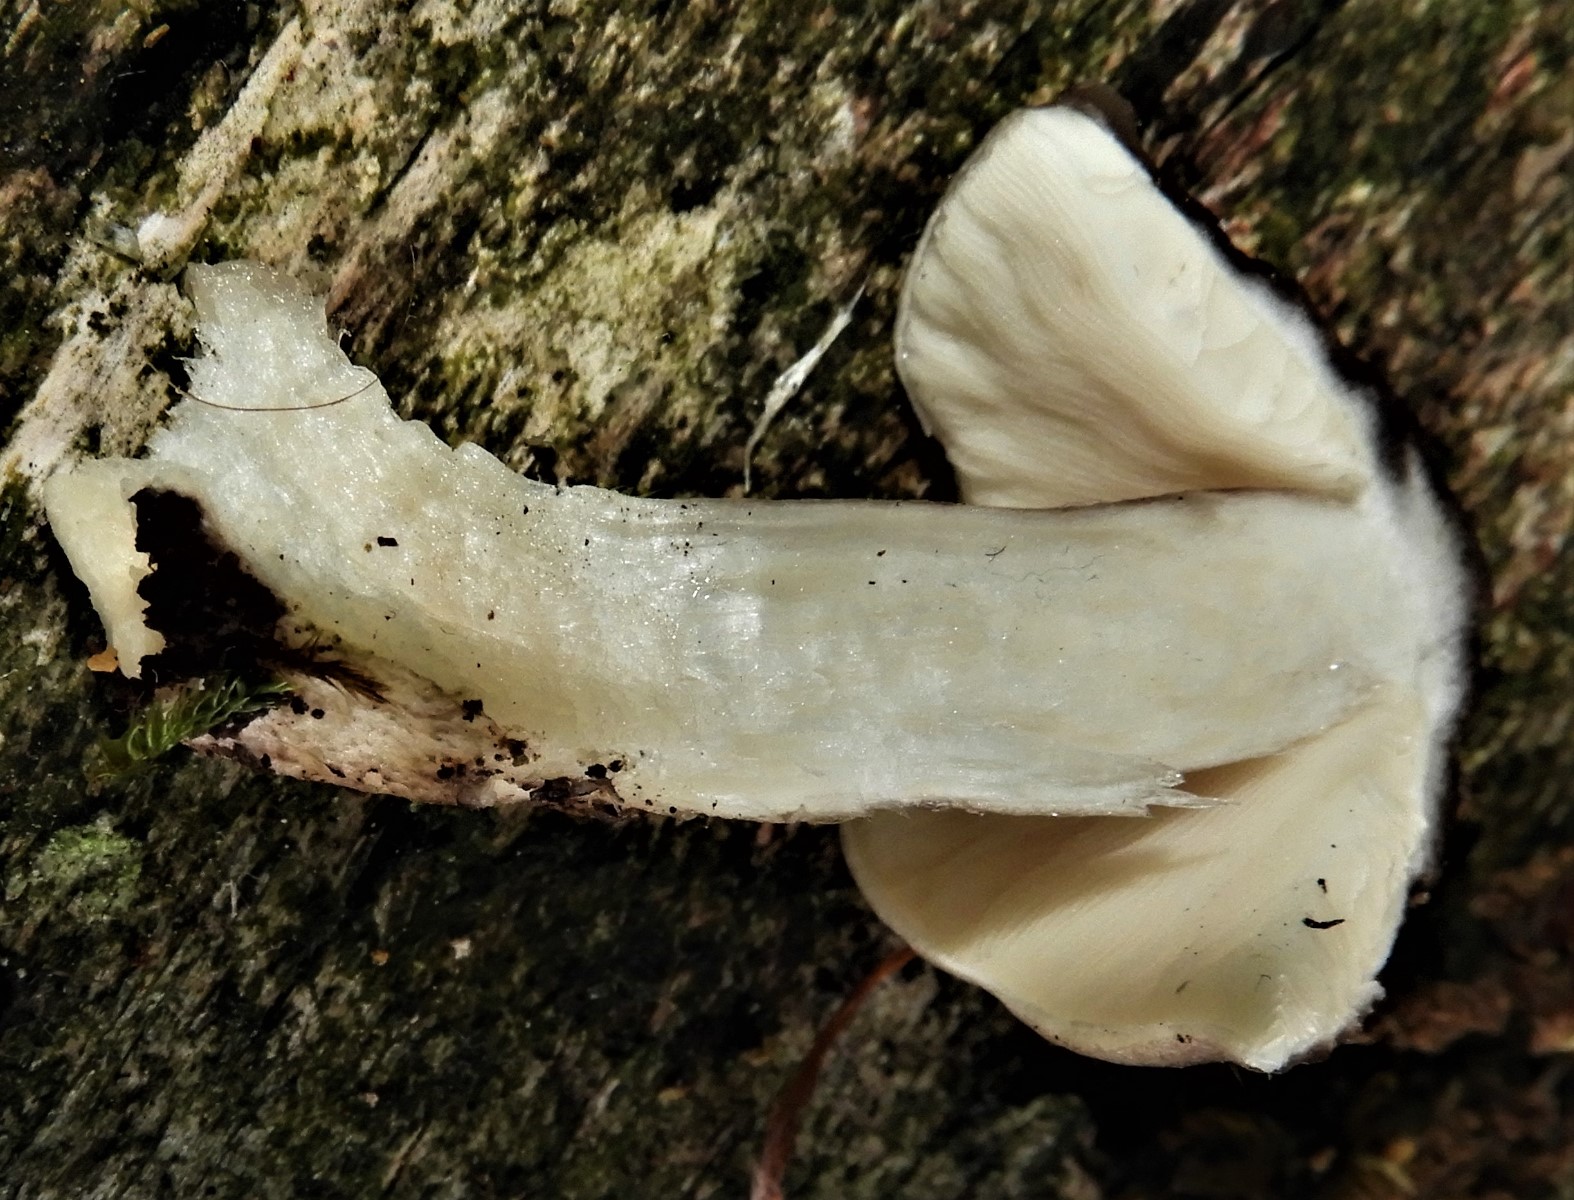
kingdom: Fungi
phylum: Basidiomycota
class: Agaricomycetes
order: Agaricales
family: Pluteaceae
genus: Pluteus
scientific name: Pluteus cervinus
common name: sodfarvet skærmhat
